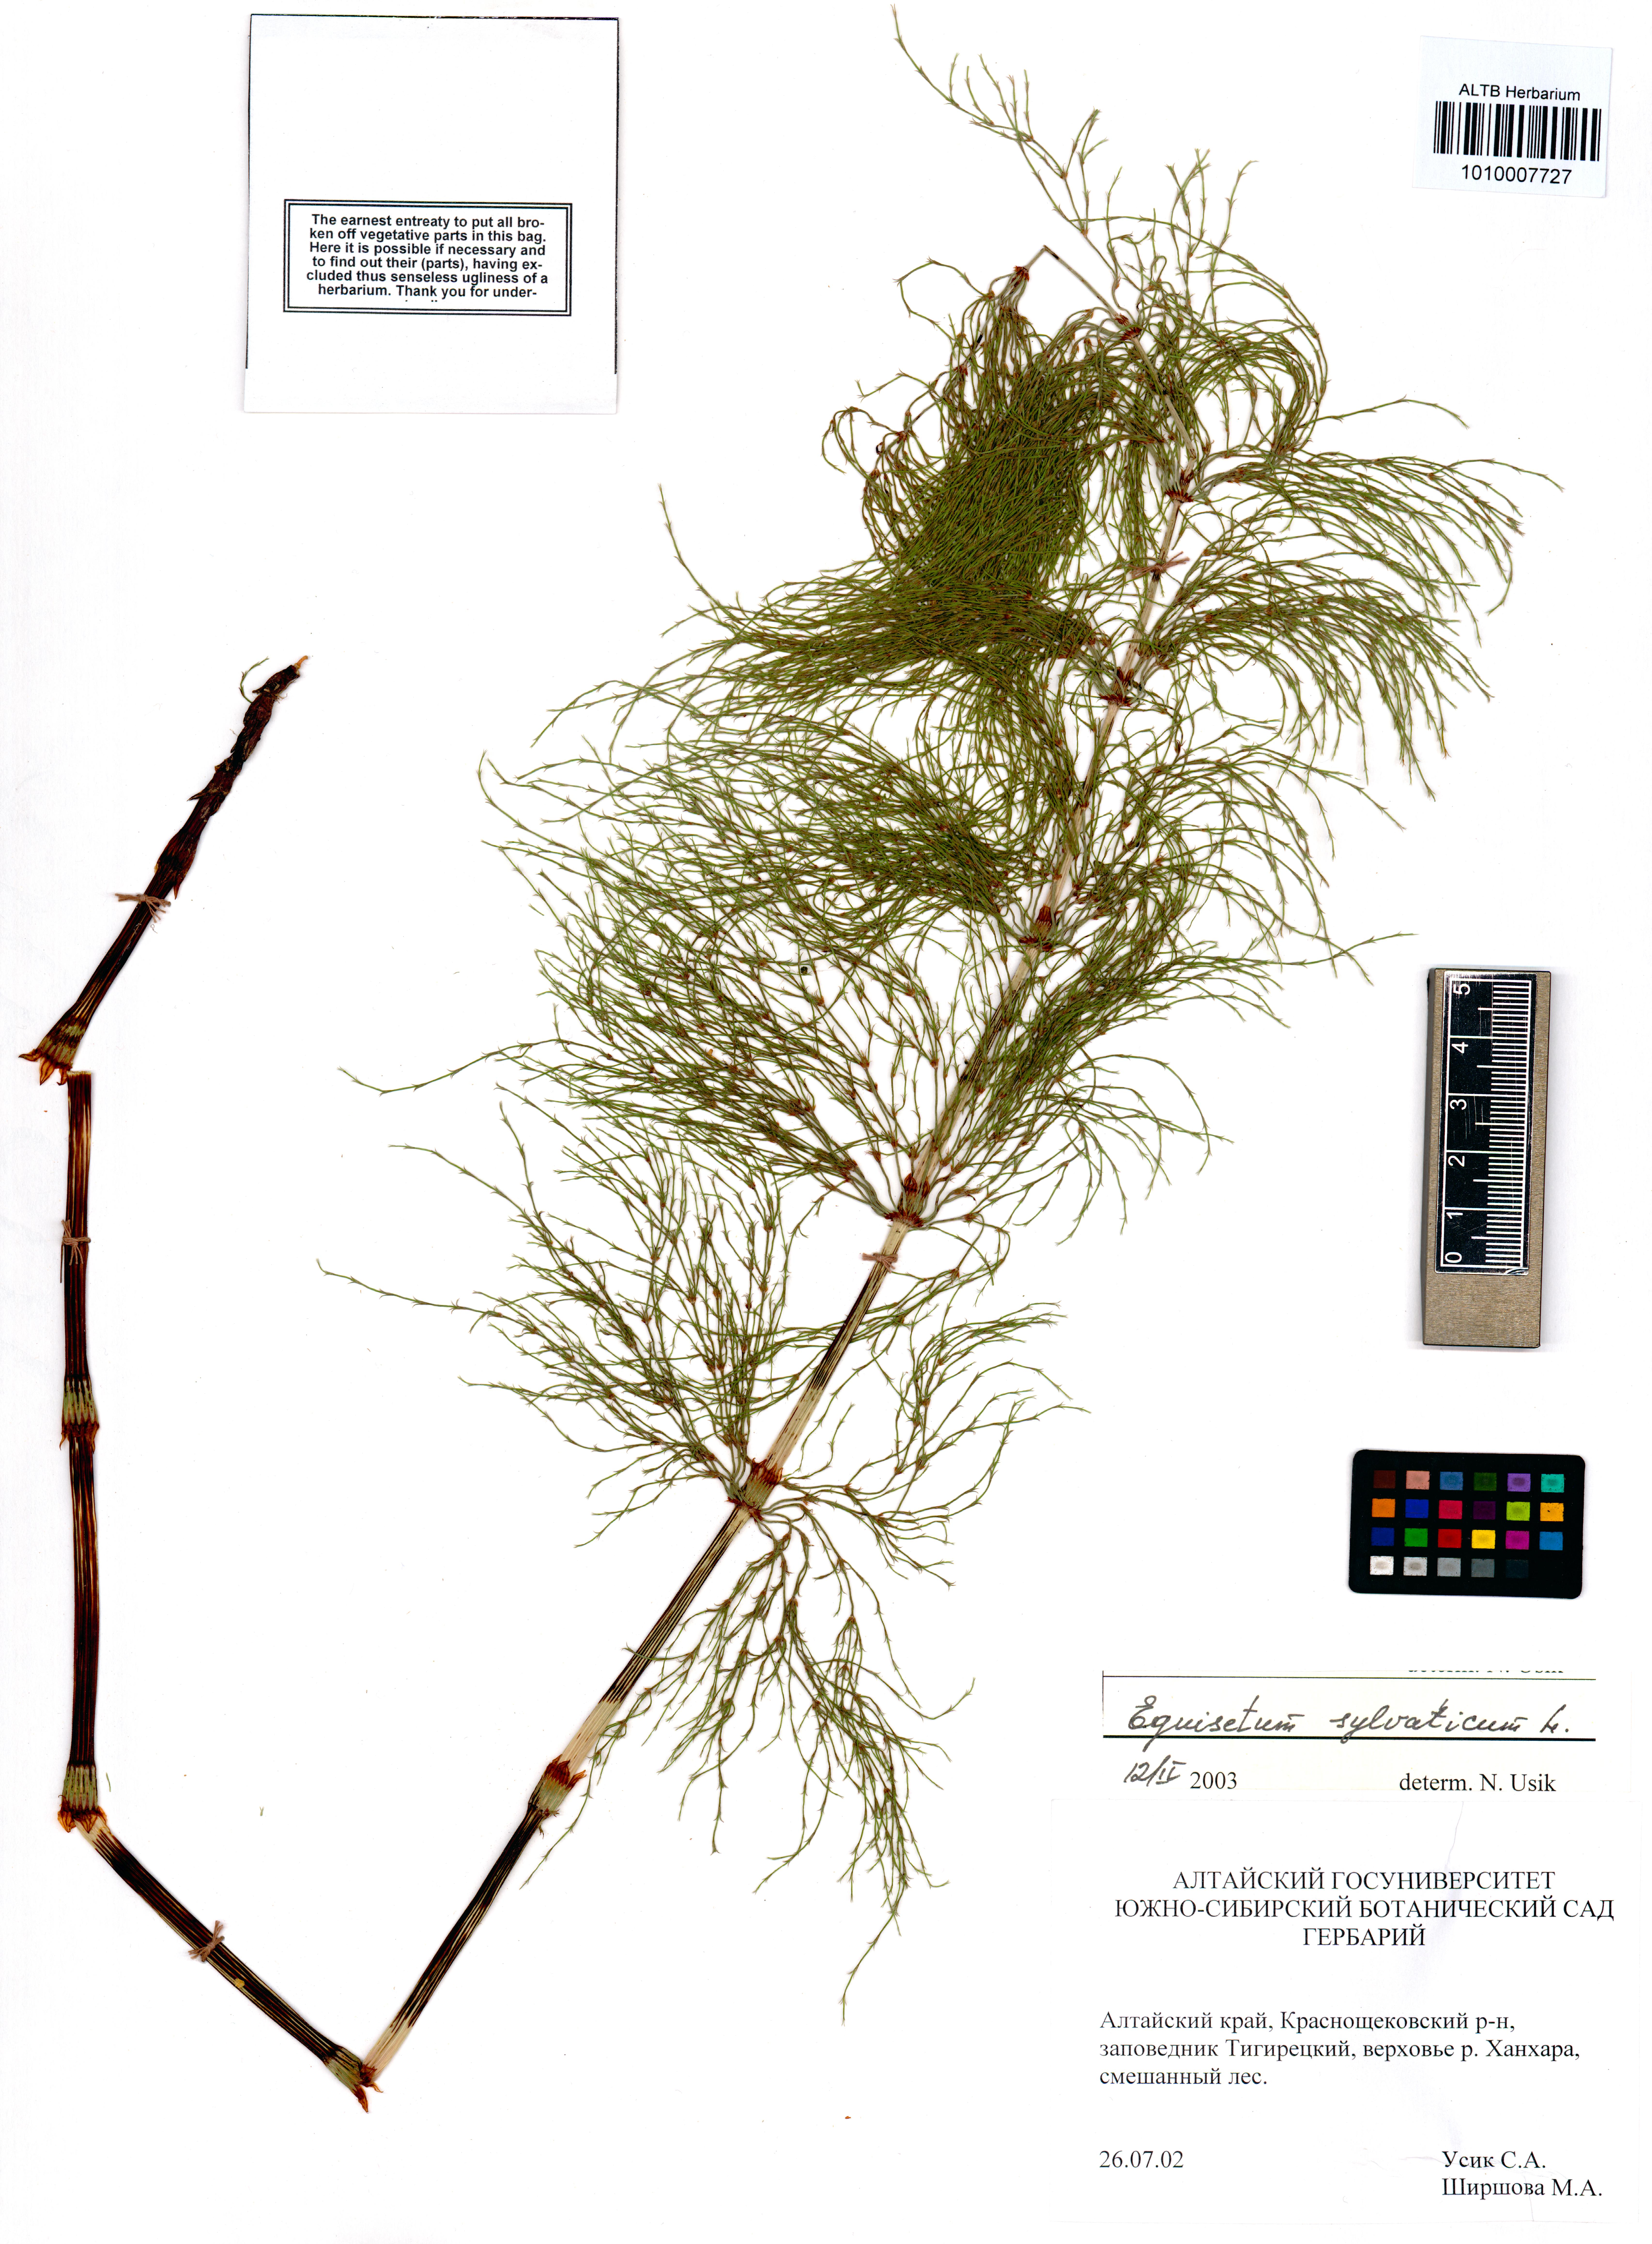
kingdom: Plantae
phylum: Tracheophyta
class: Polypodiopsida
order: Equisetales
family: Equisetaceae
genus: Equisetum
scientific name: Equisetum sylvaticum
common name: Wood horsetail
